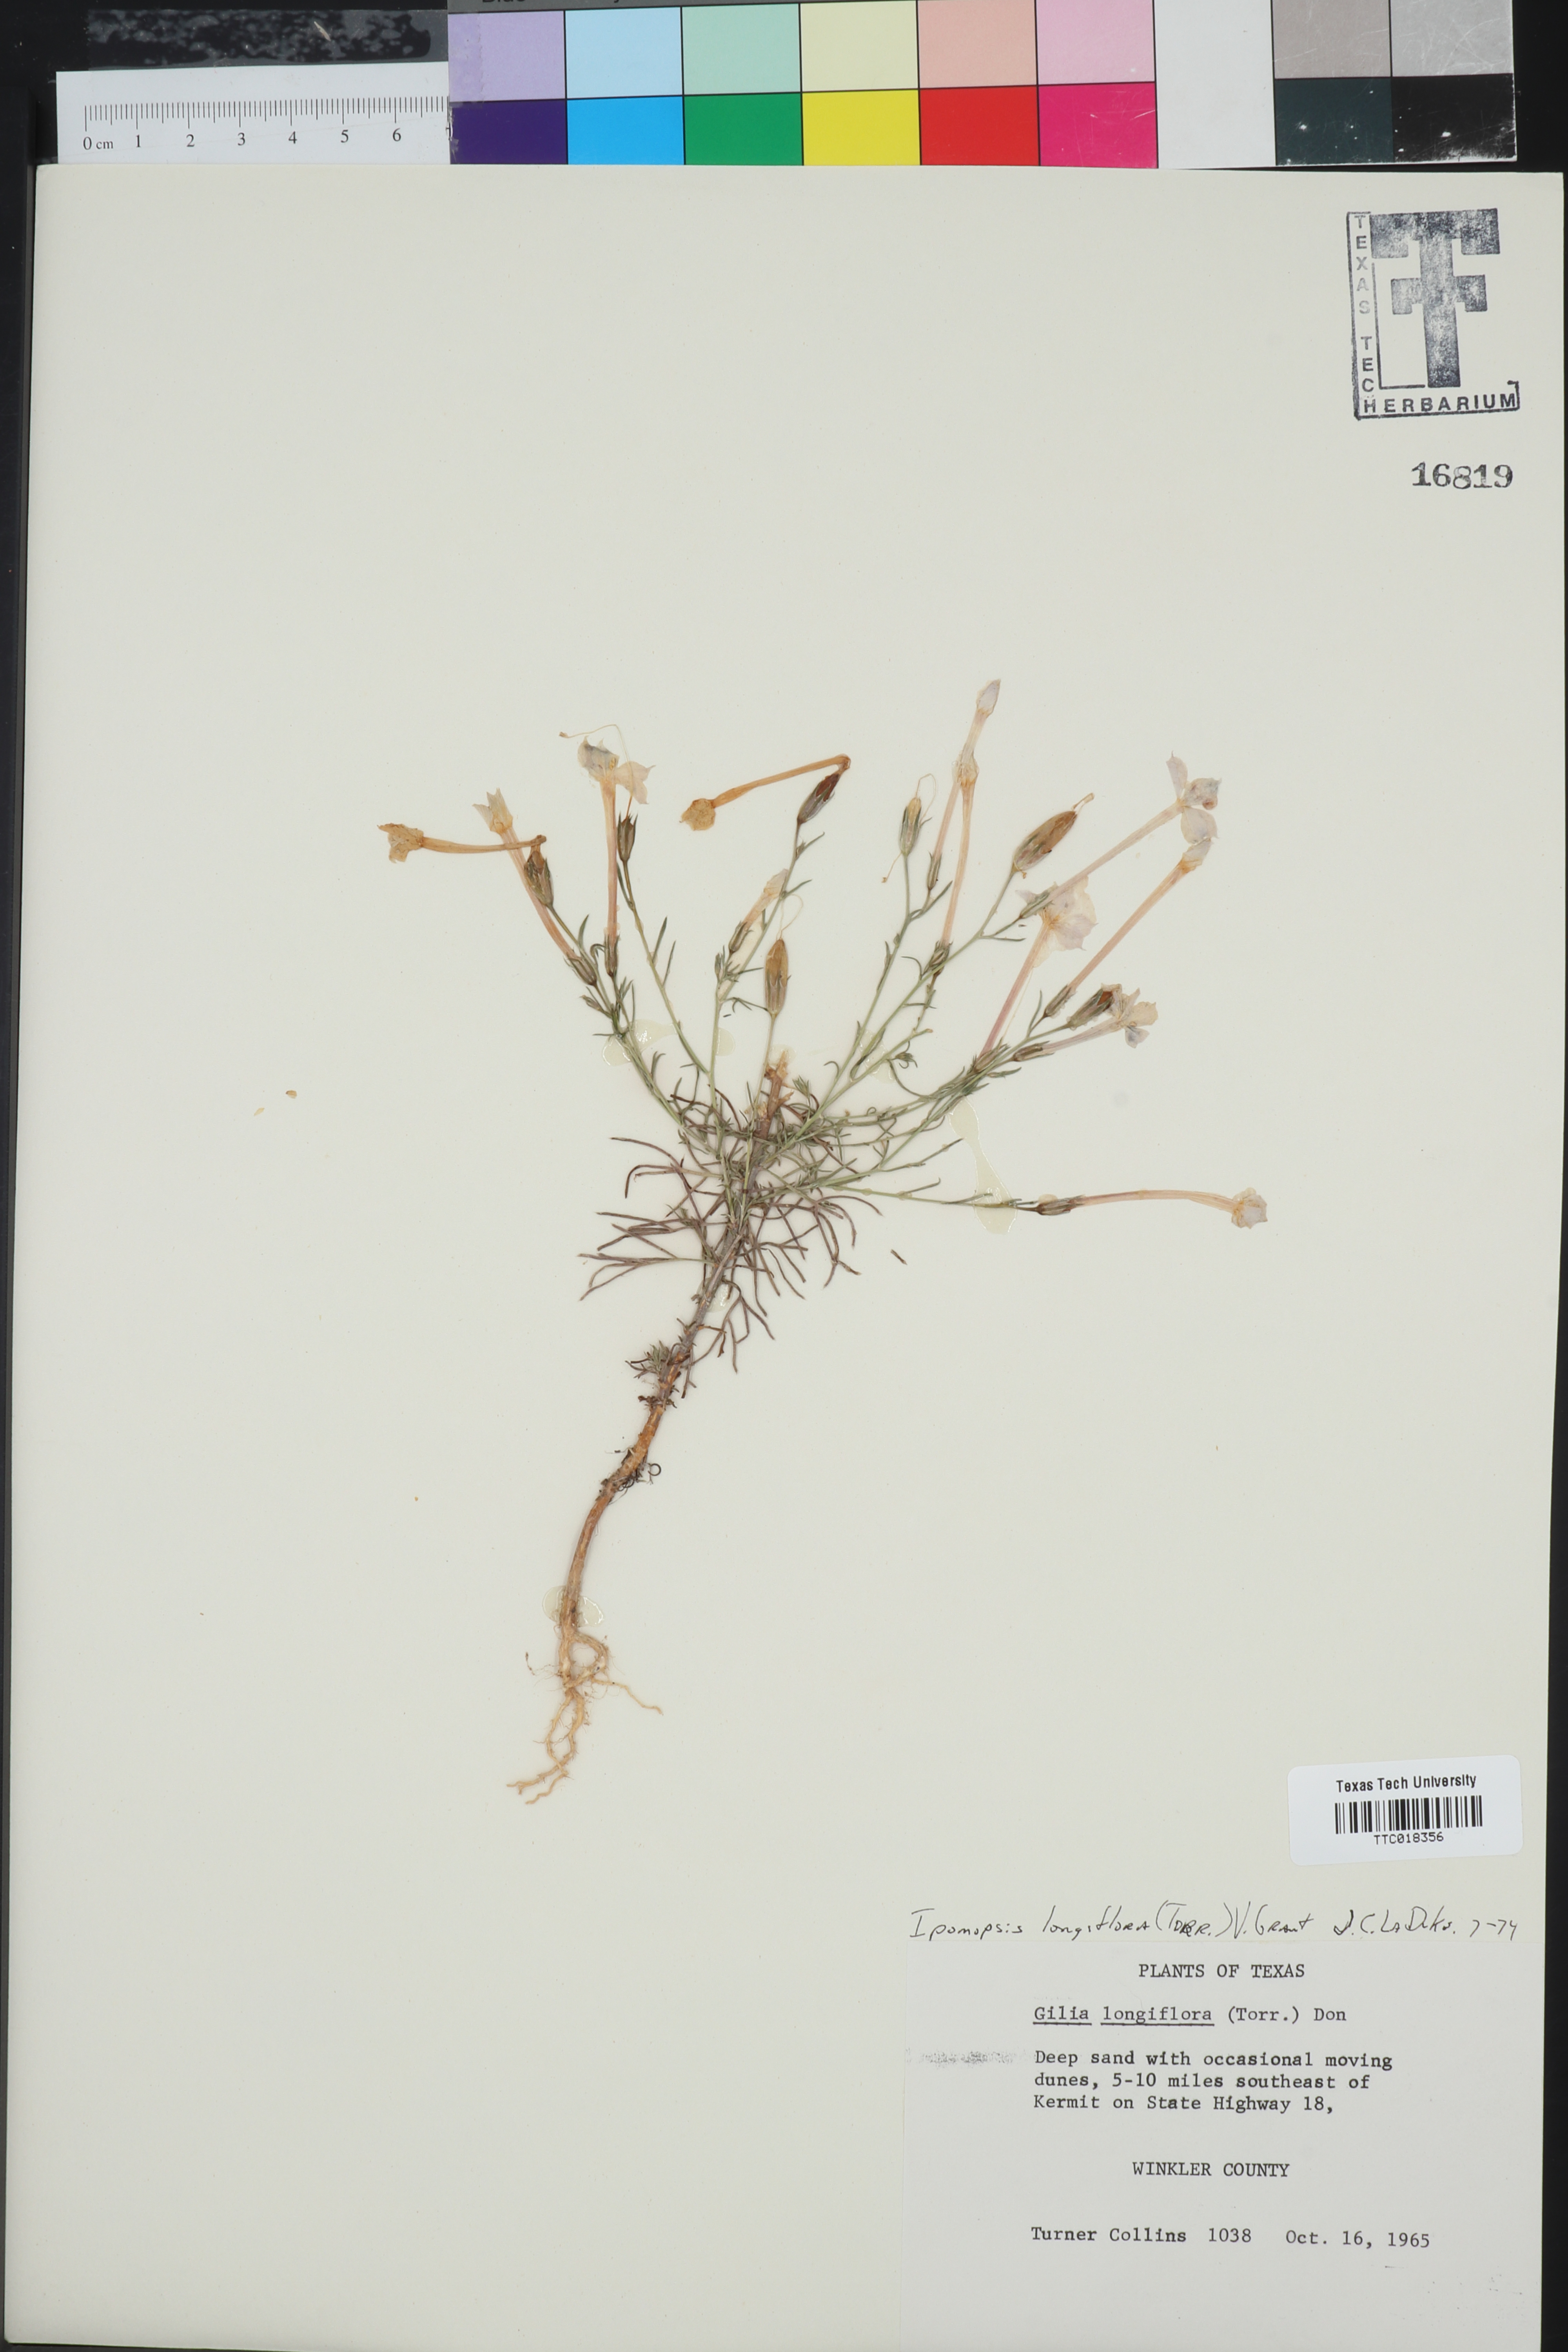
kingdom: Plantae
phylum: Tracheophyta
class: Magnoliopsida
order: Ericales
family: Polemoniaceae
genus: Ipomopsis
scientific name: Ipomopsis longiflora
